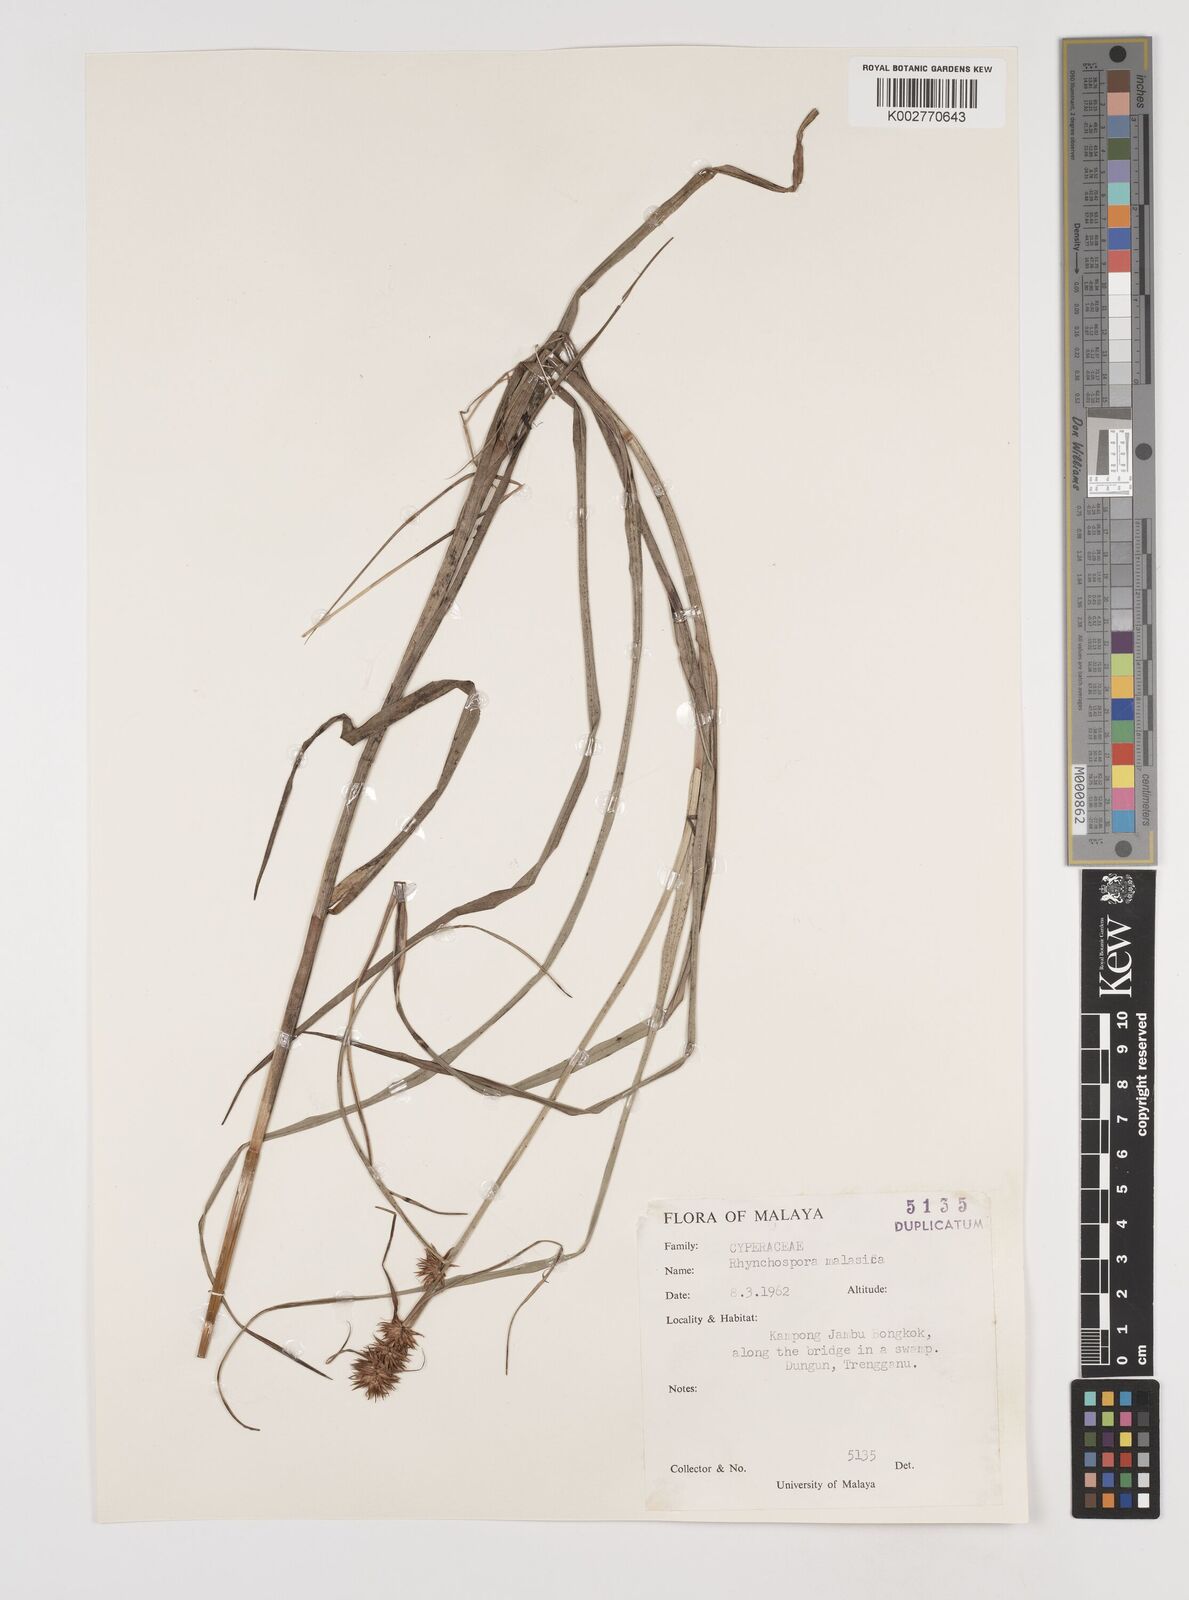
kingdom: Plantae
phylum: Tracheophyta
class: Liliopsida
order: Poales
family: Cyperaceae
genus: Rhynchospora
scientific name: Rhynchospora malasica
